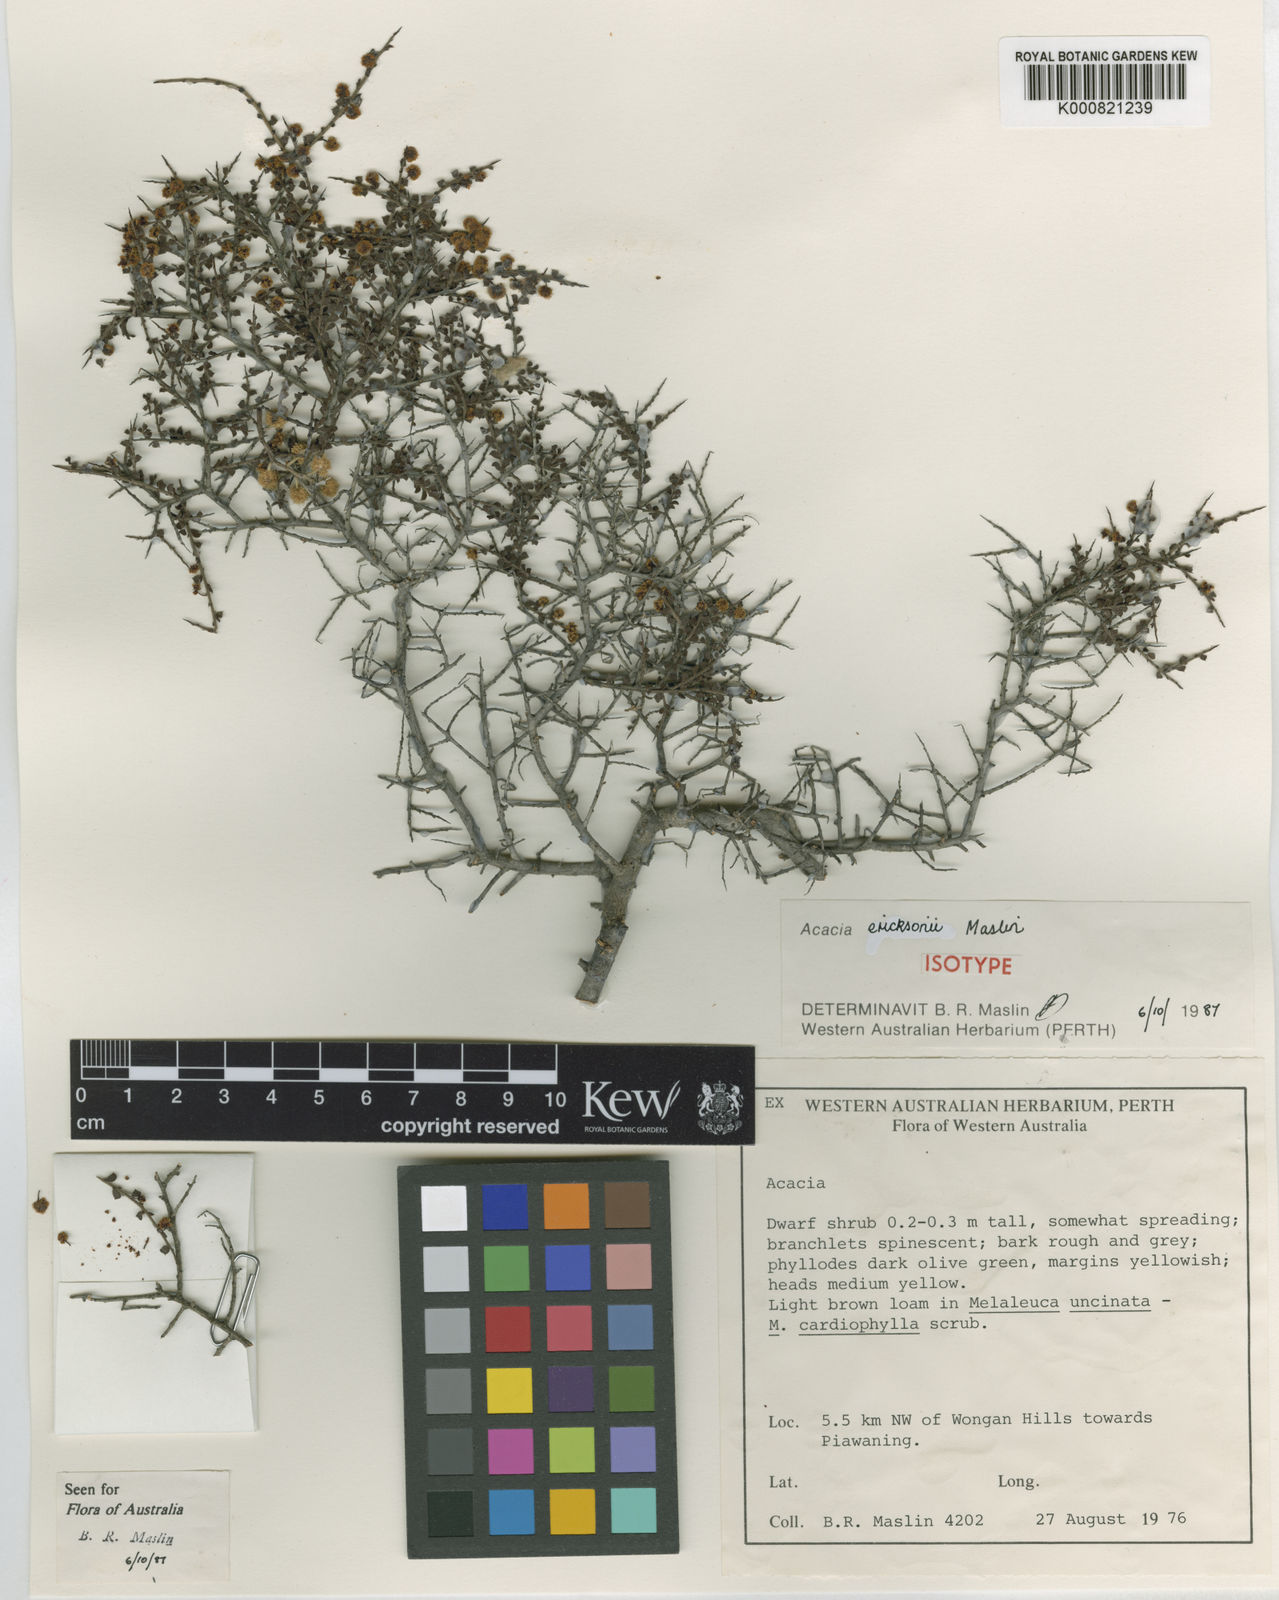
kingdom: Plantae
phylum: Tracheophyta
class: Magnoliopsida
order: Fabales
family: Fabaceae
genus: Acacia
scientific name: Acacia ericksoniae
